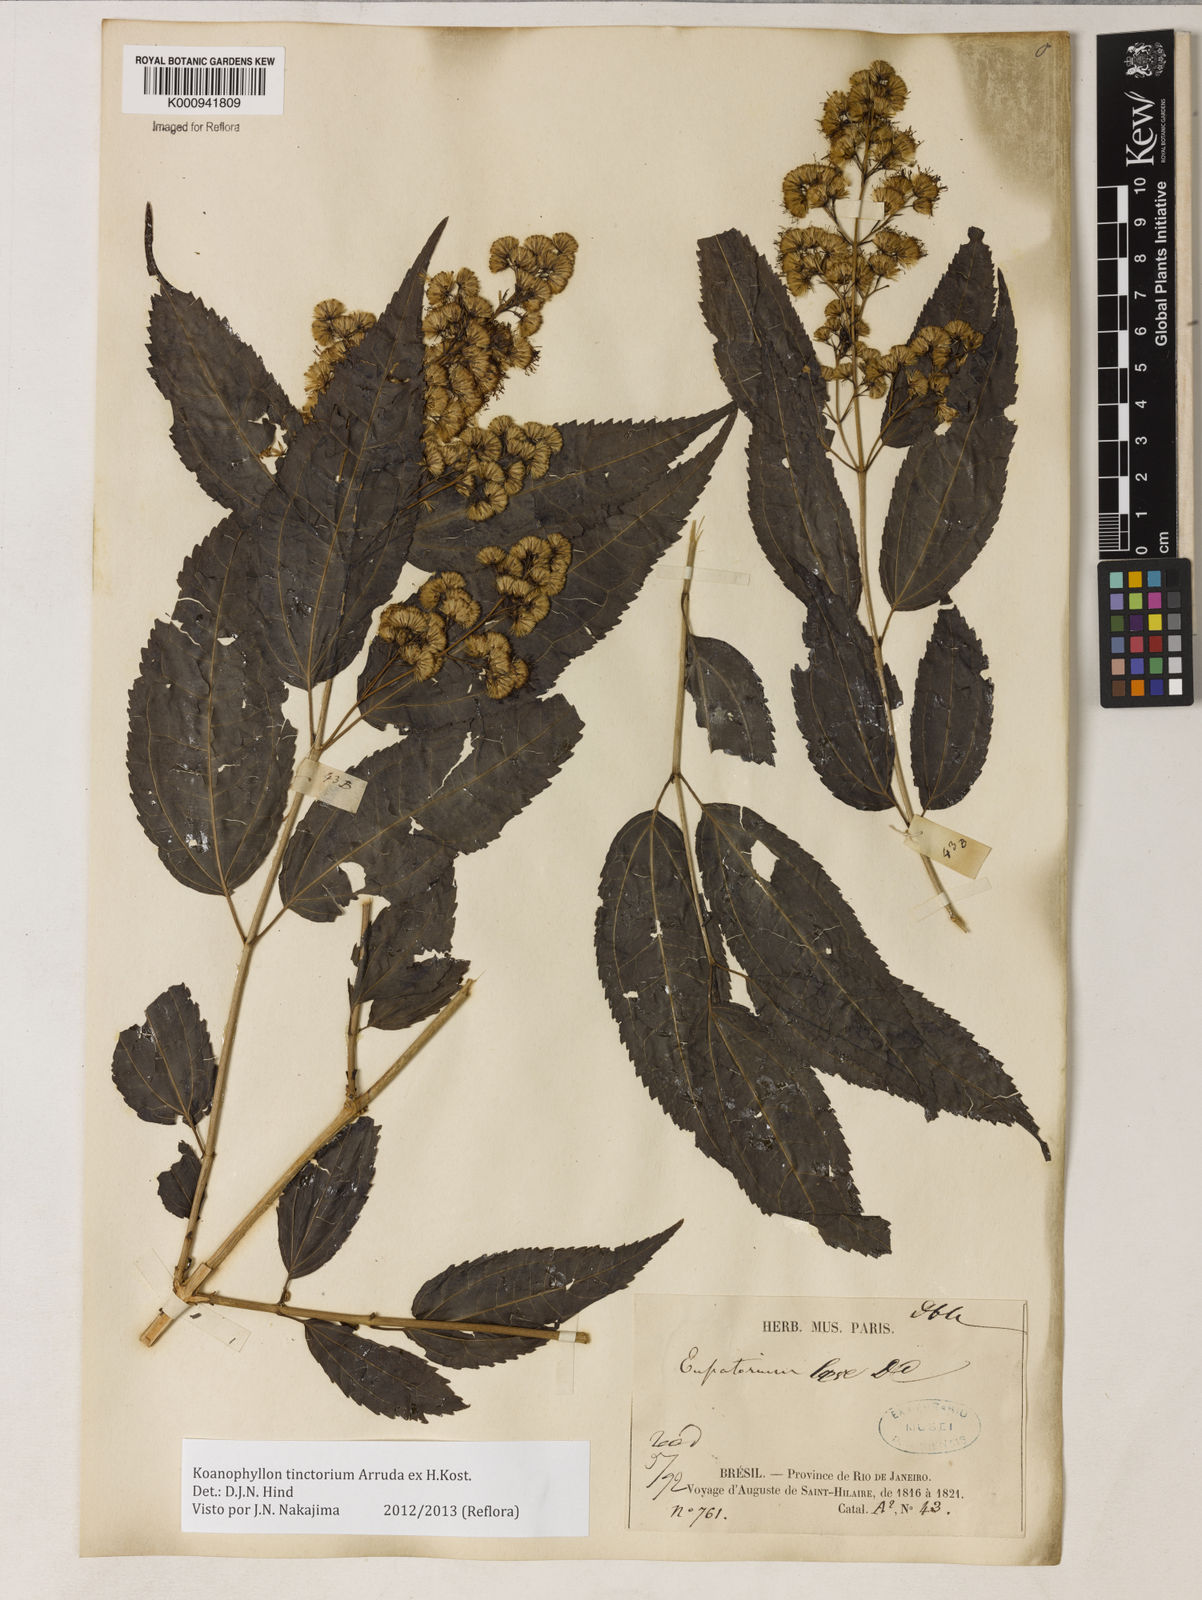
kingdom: Plantae
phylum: Tracheophyta
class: Magnoliopsida
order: Asterales
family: Asteraceae
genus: Koanophyllon
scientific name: Koanophyllon
